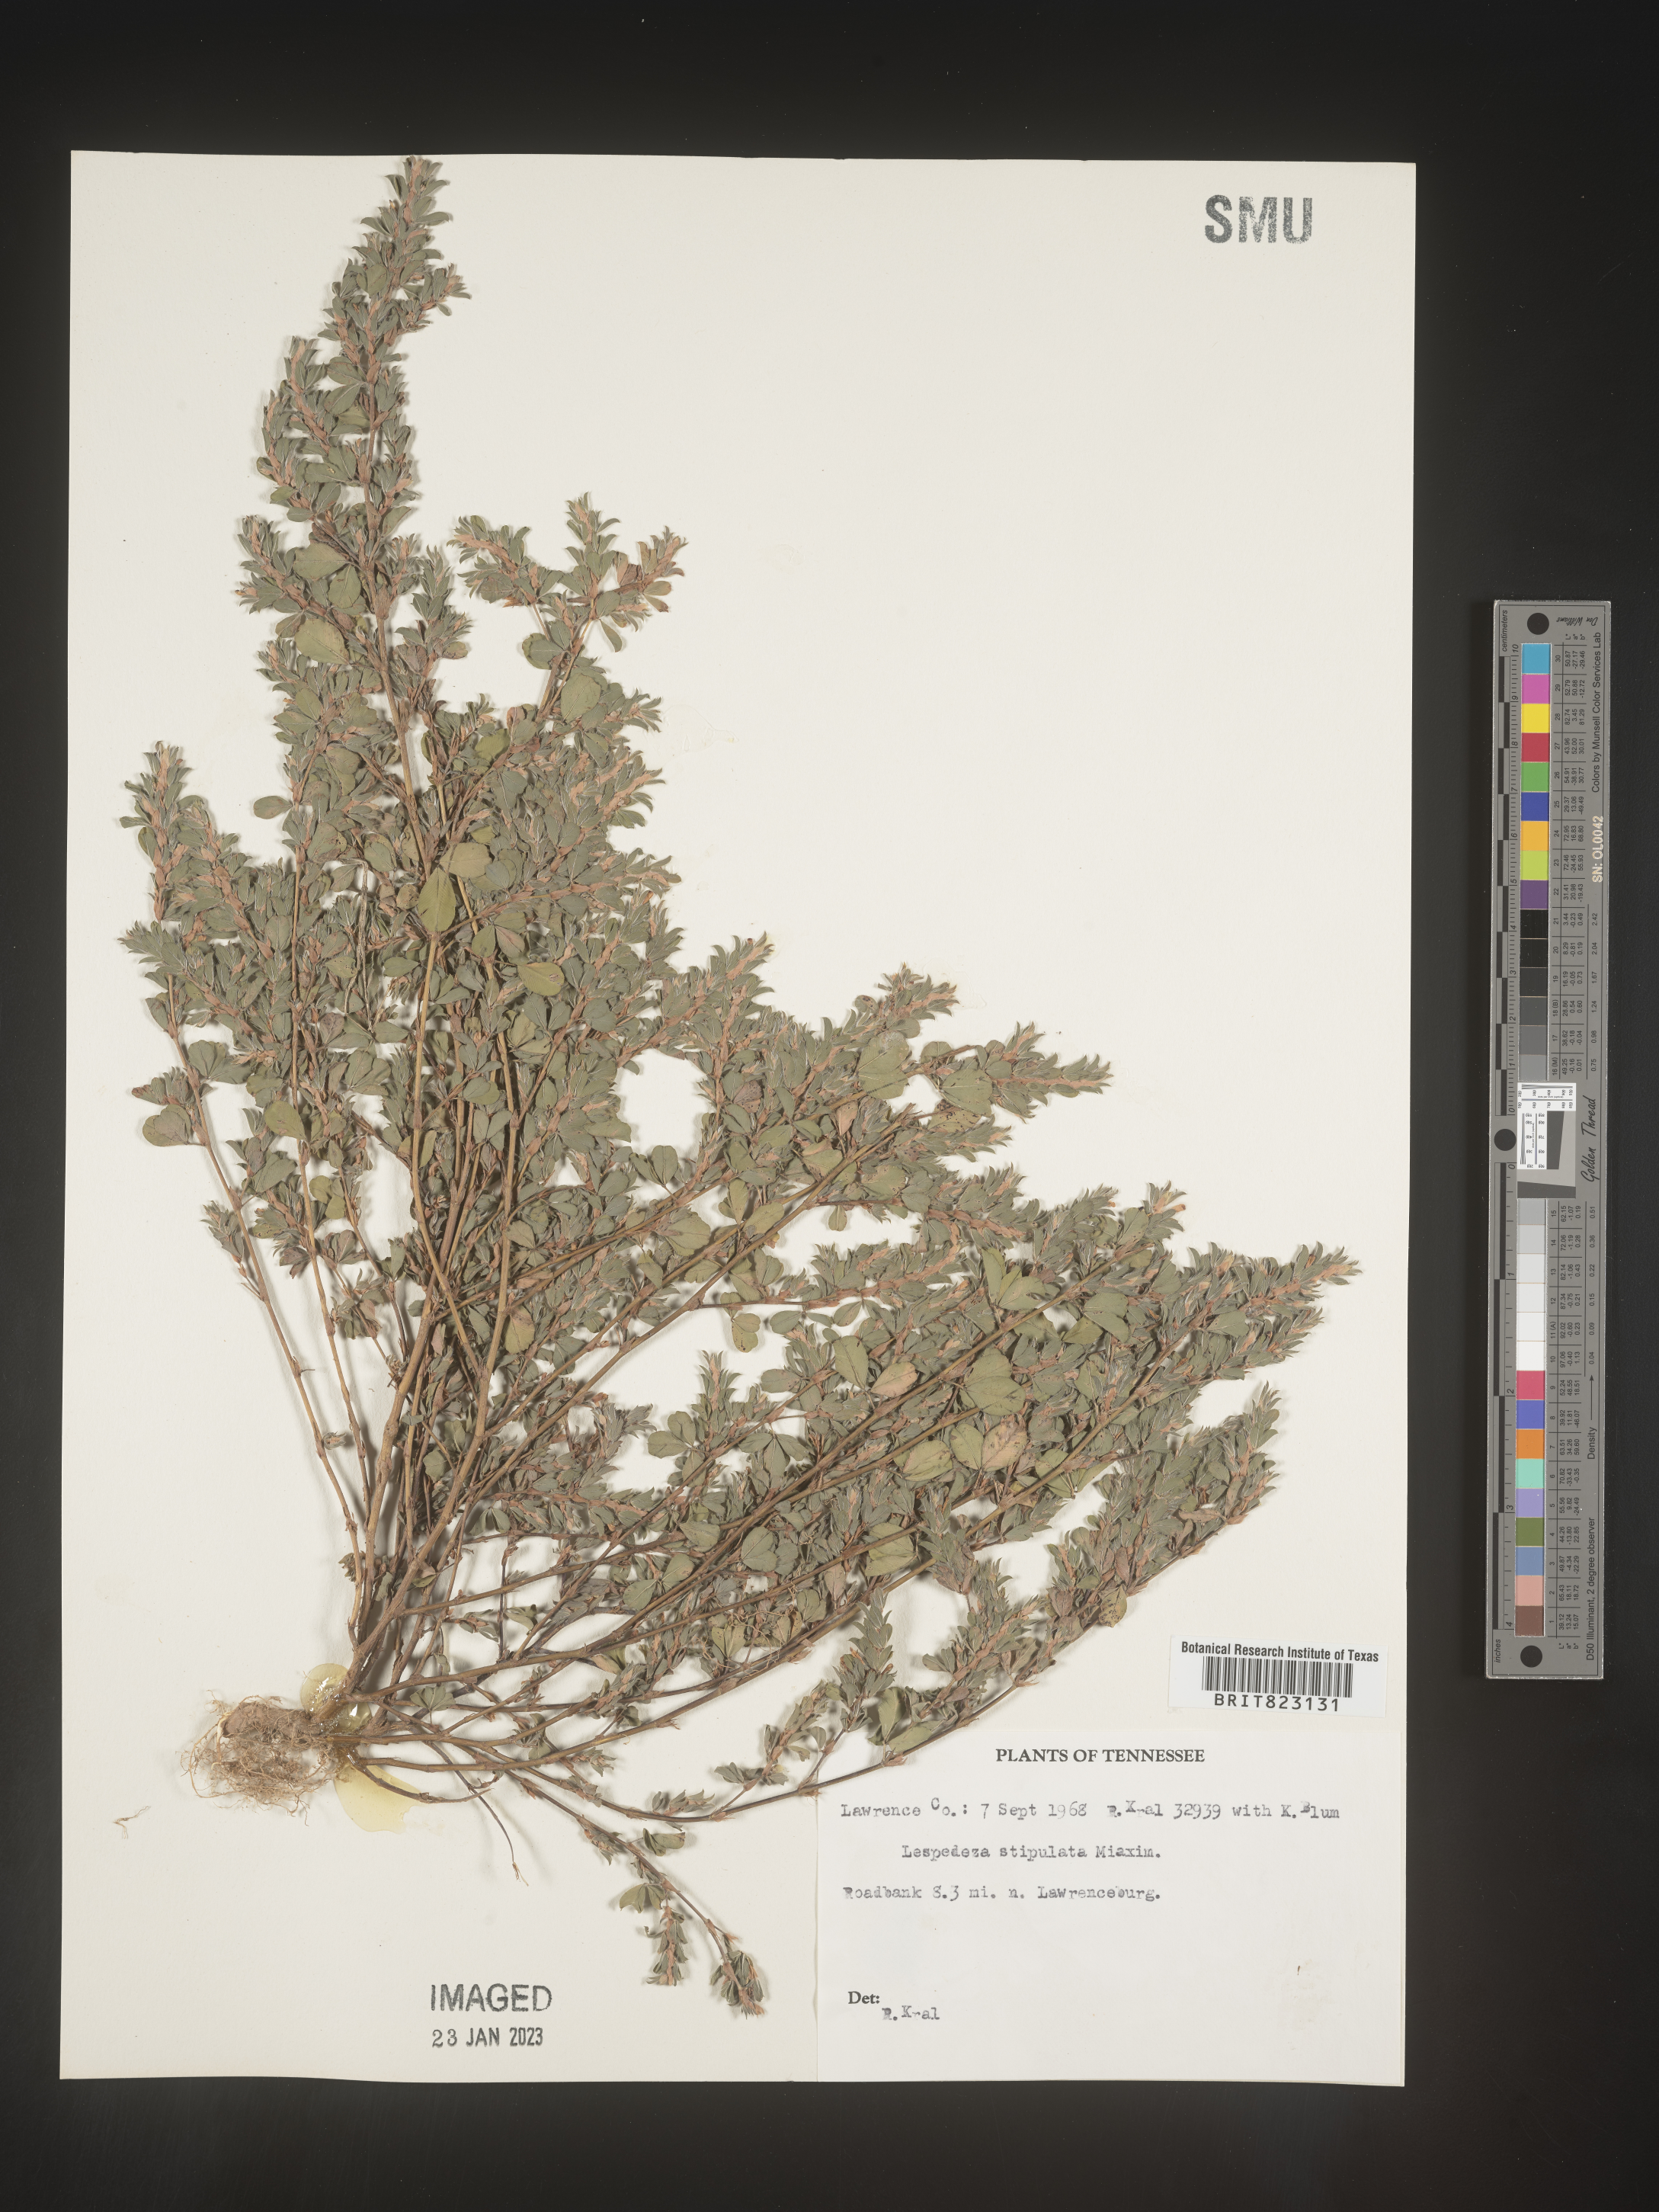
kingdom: Plantae
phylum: Tracheophyta
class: Magnoliopsida
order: Fabales
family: Fabaceae
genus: Lespedeza
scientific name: Lespedeza
